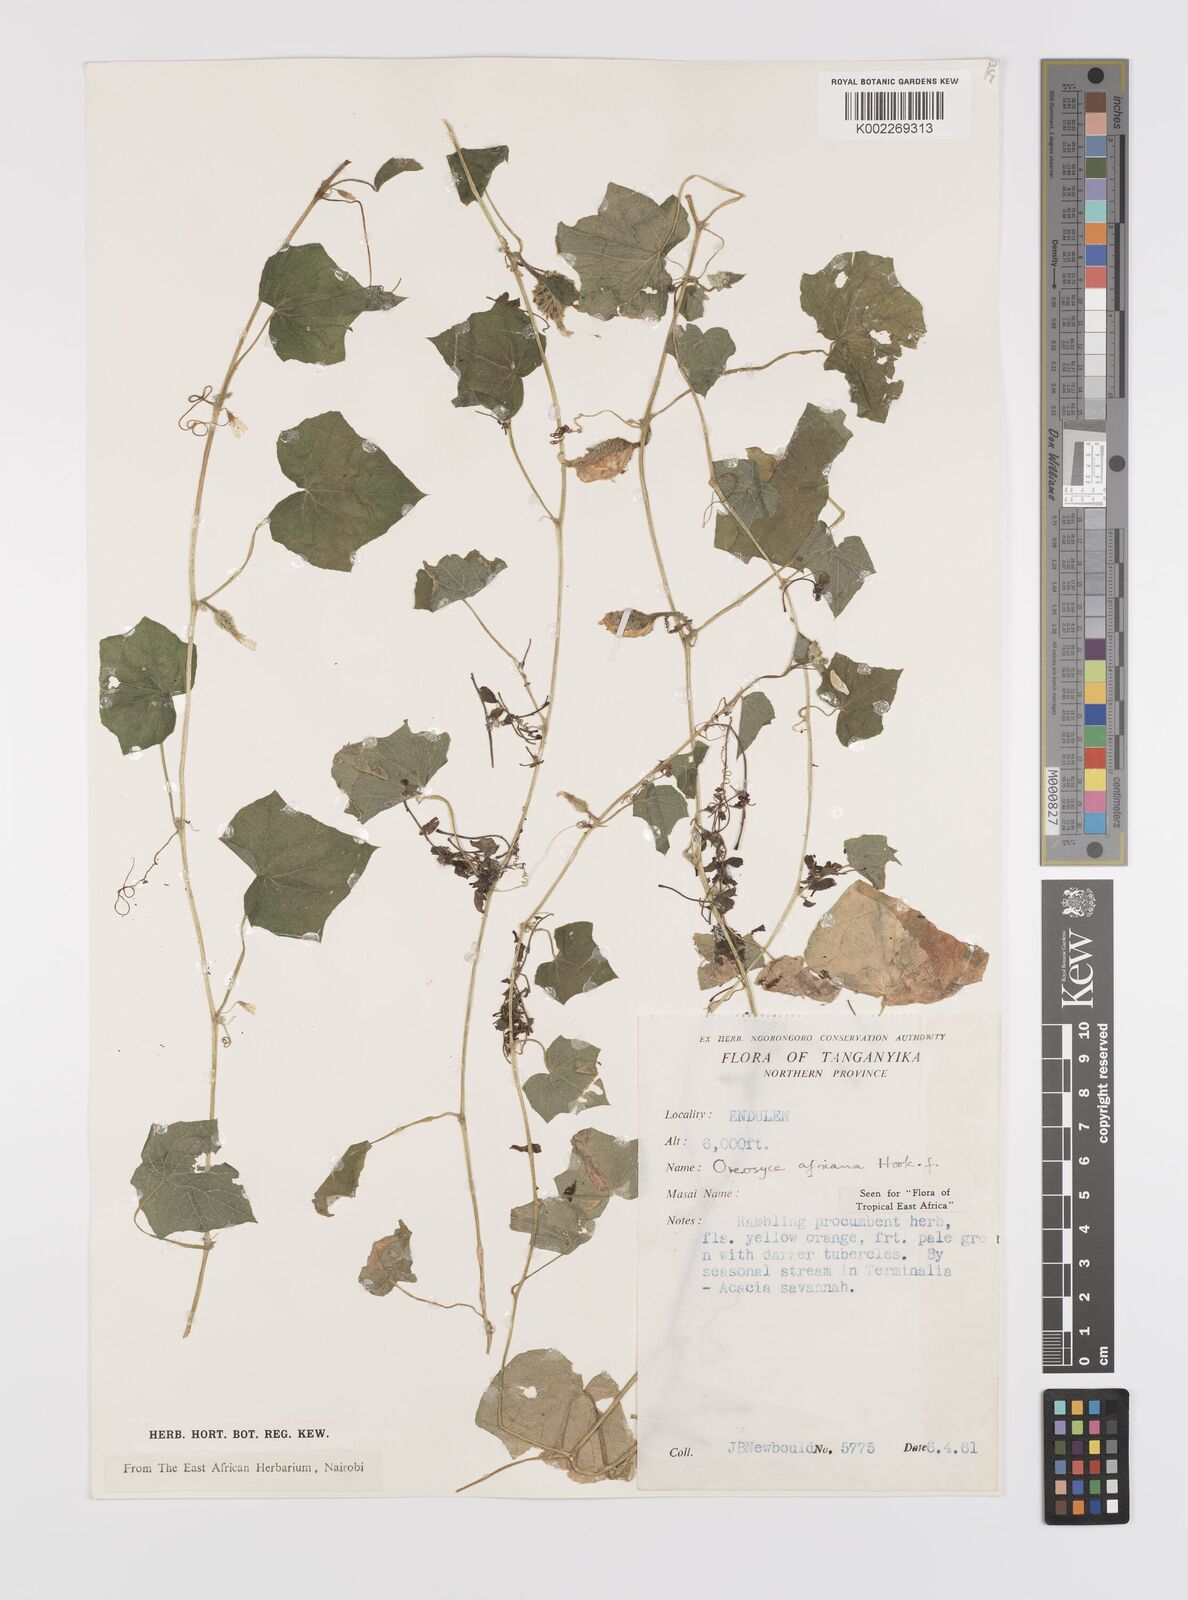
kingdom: Plantae
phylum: Tracheophyta
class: Magnoliopsida
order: Cucurbitales
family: Cucurbitaceae
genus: Cucumis
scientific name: Cucumis oreosyce
